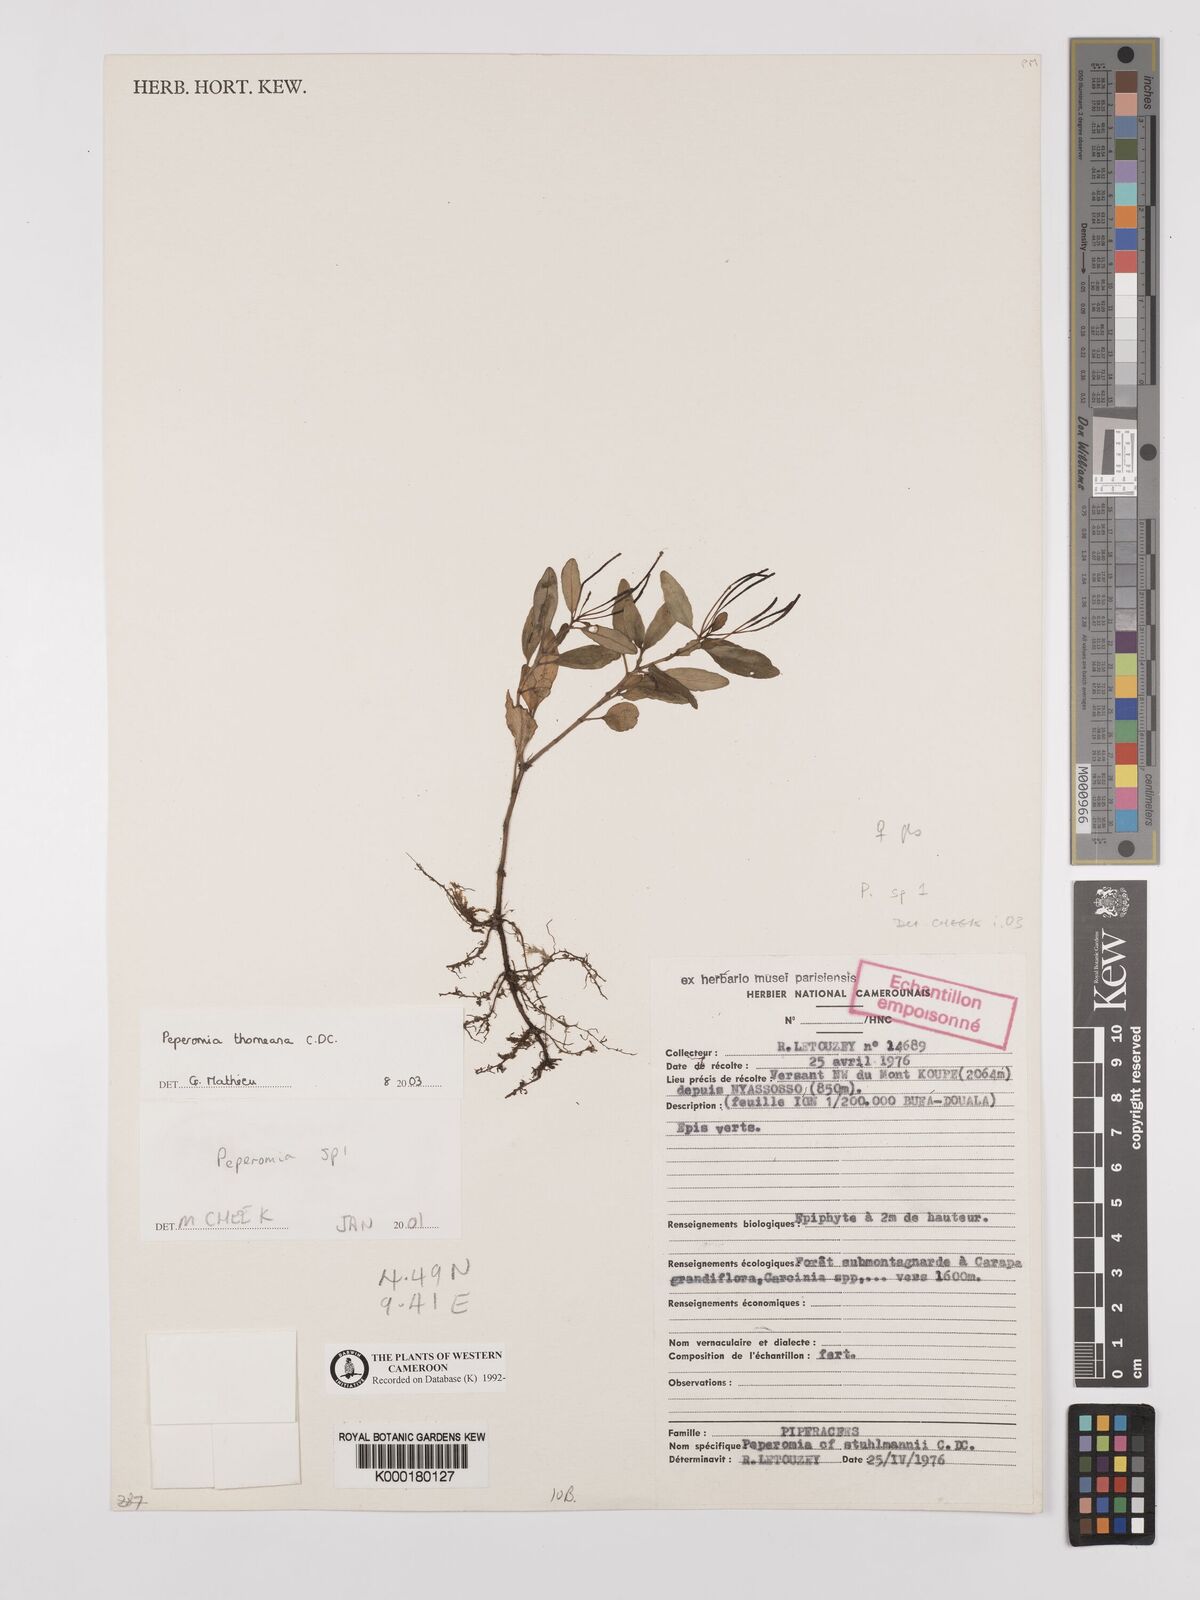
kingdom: Plantae
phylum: Tracheophyta
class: Magnoliopsida
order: Piperales
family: Piperaceae
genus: Peperomia
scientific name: Peperomia thomeana
